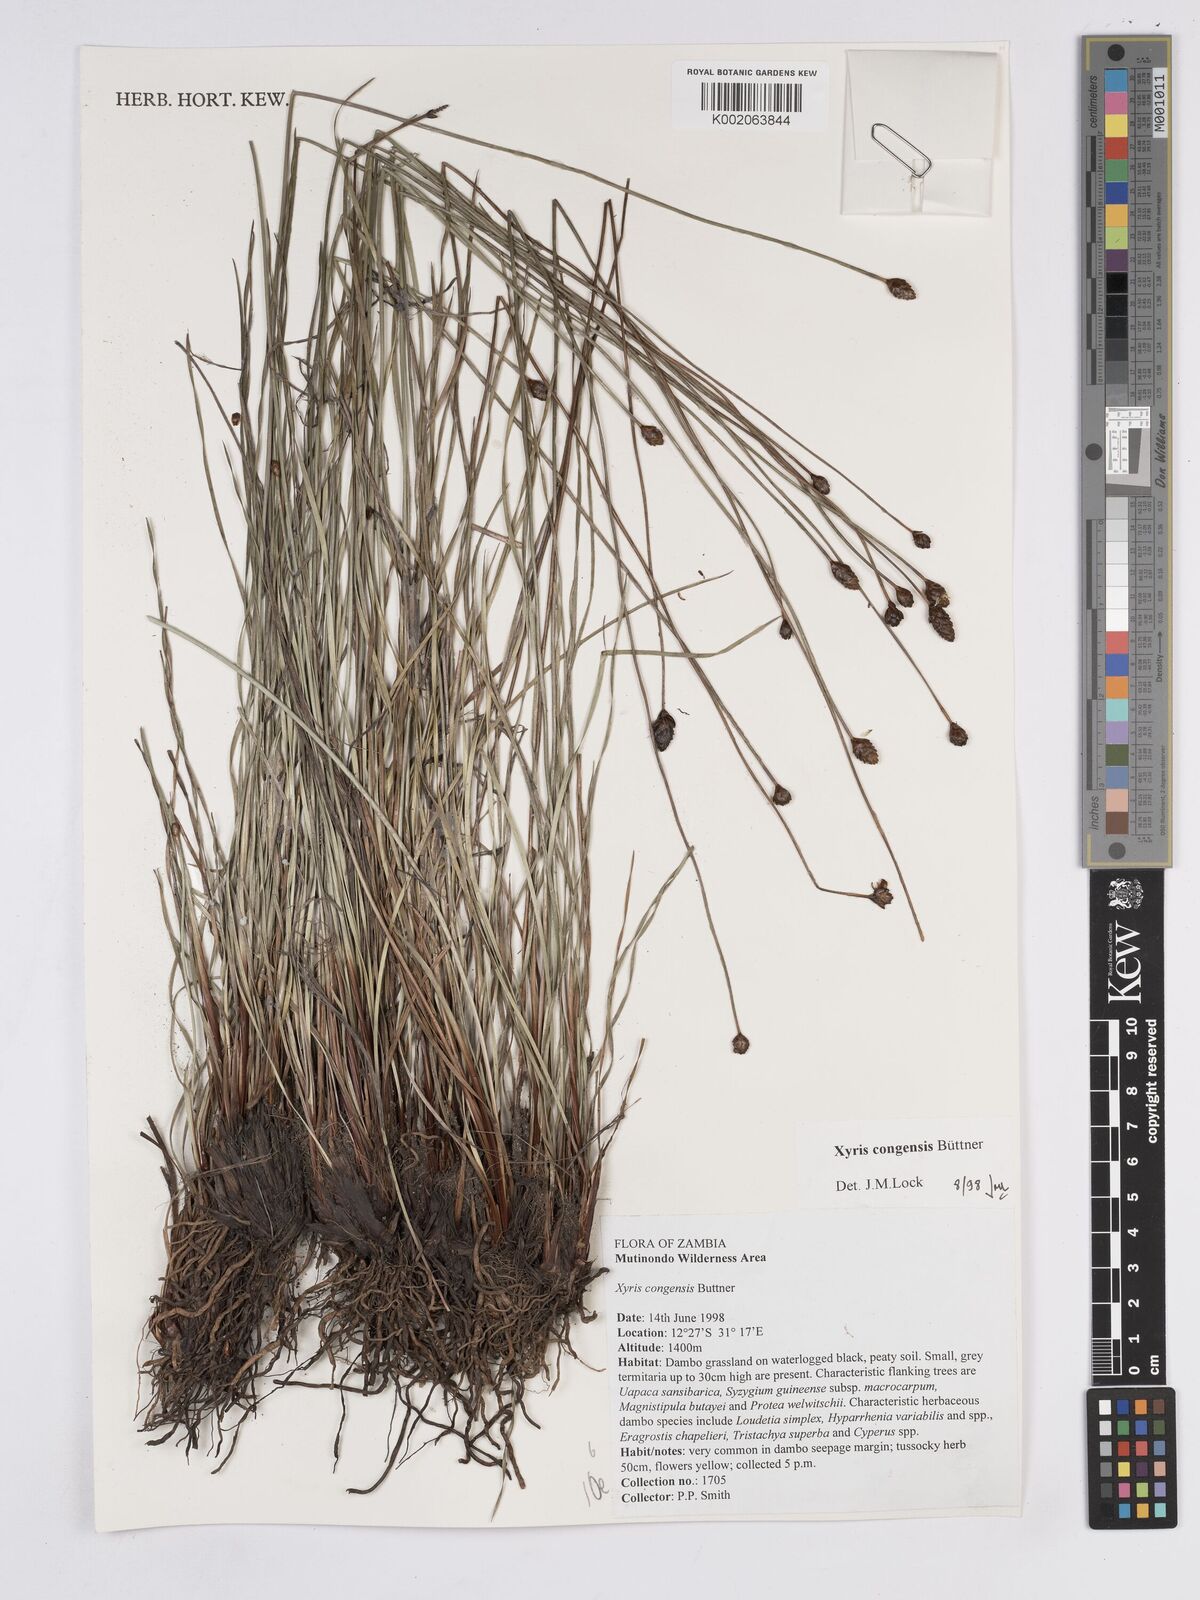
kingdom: Plantae
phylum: Tracheophyta
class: Liliopsida
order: Poales
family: Xyridaceae
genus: Xyris
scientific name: Xyris congensis
